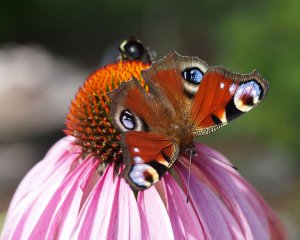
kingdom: Animalia
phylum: Arthropoda
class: Insecta
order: Lepidoptera
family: Nymphalidae
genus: Aglais
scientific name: Aglais io
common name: European Peacock
